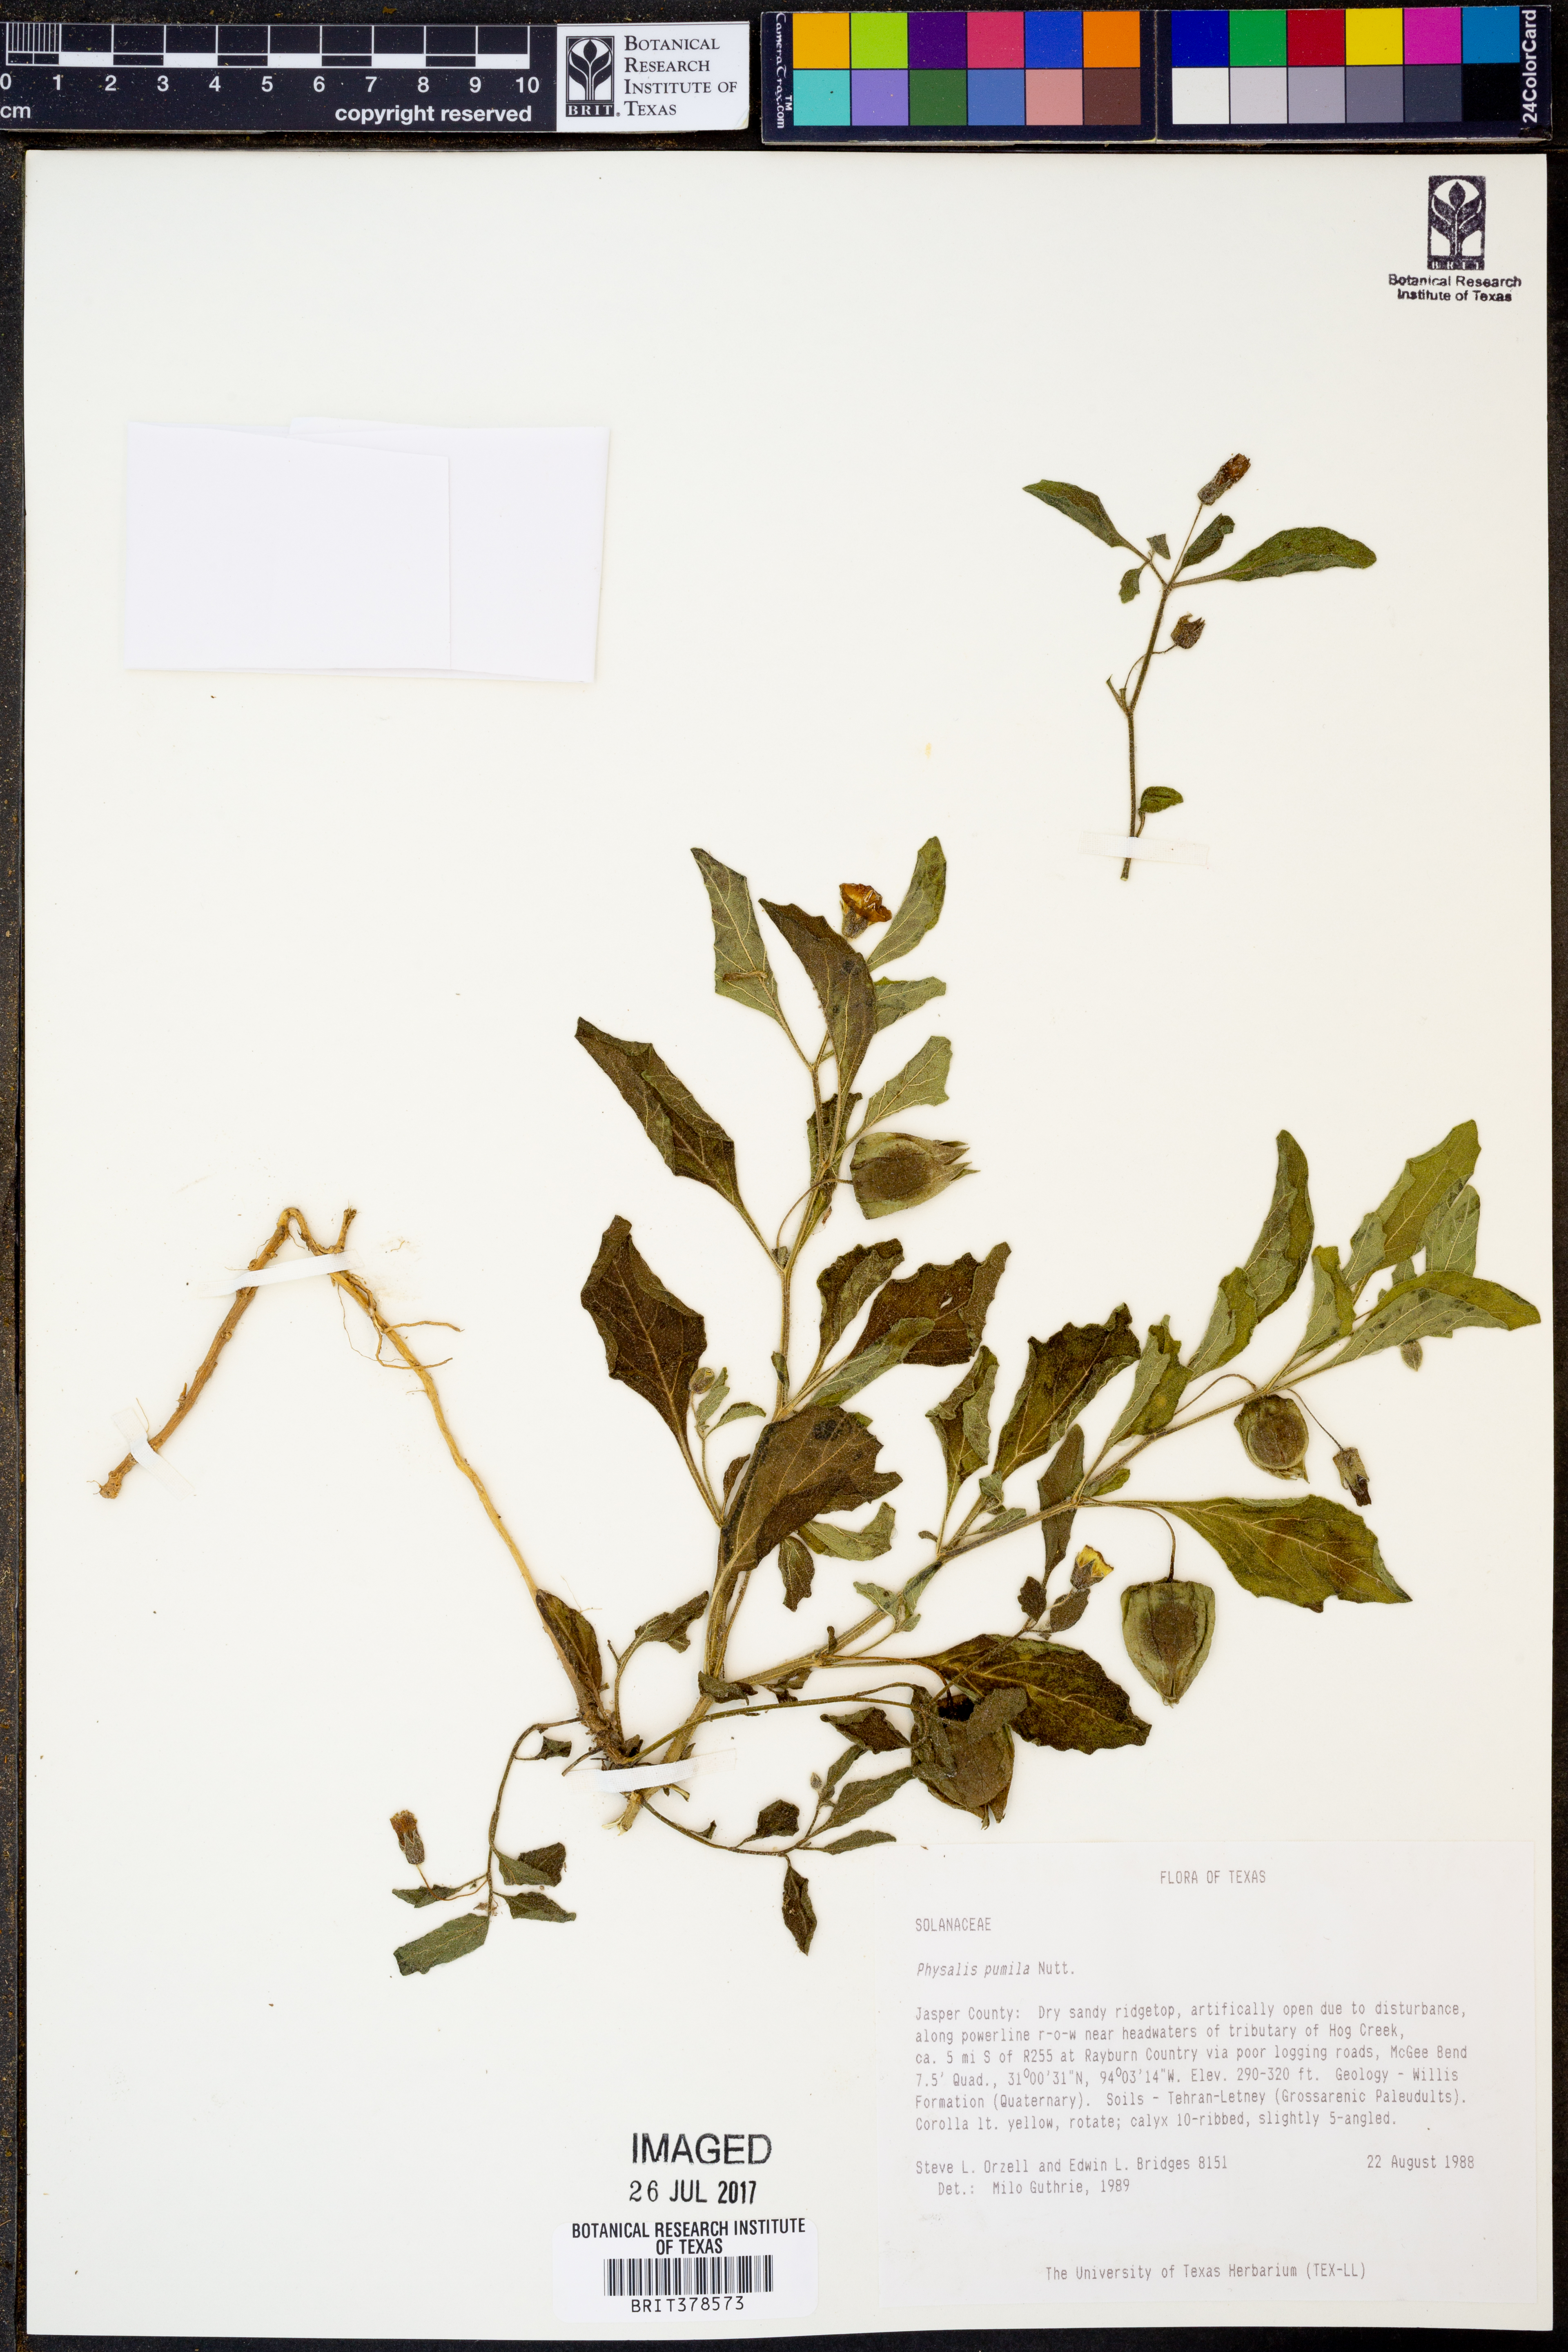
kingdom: Plantae
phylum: Tracheophyta
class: Magnoliopsida
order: Solanales
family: Solanaceae
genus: Physalis
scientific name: Physalis pumila
